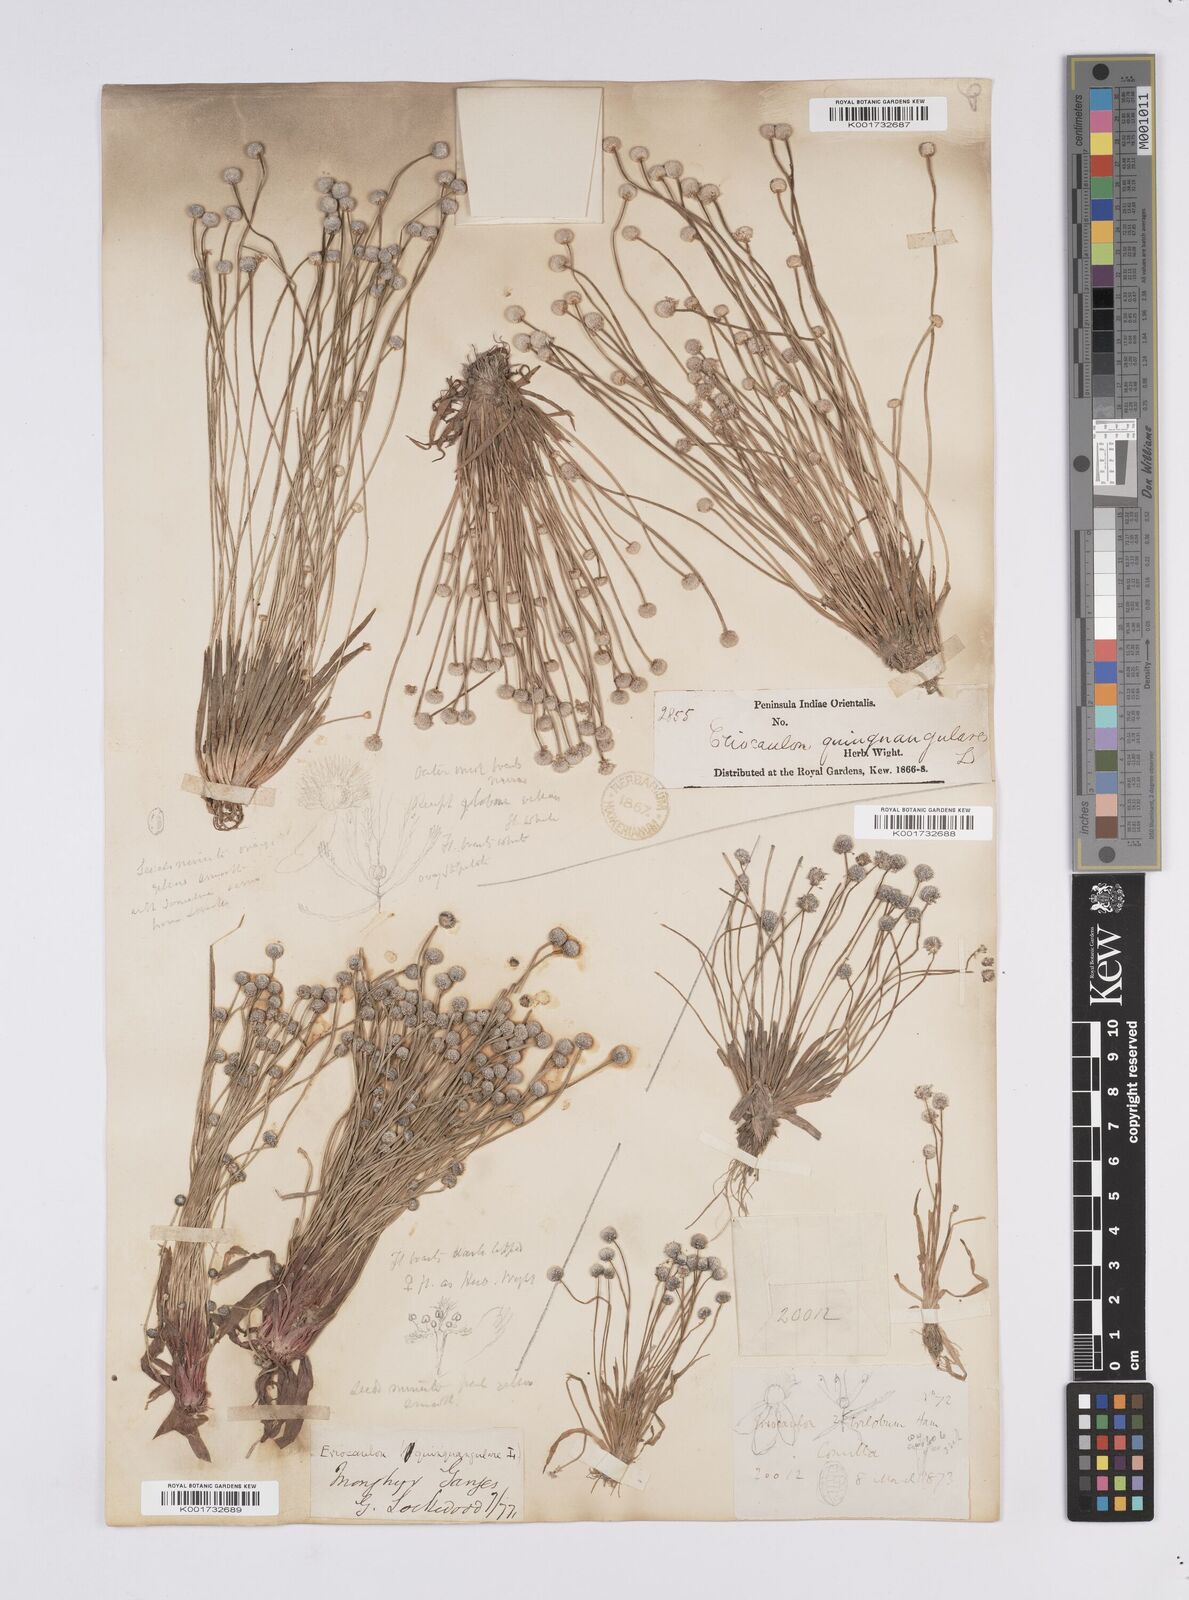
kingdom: Plantae
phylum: Tracheophyta
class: Liliopsida
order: Poales
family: Eriocaulaceae
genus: Eriocaulon
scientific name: Eriocaulon quinquangulare
